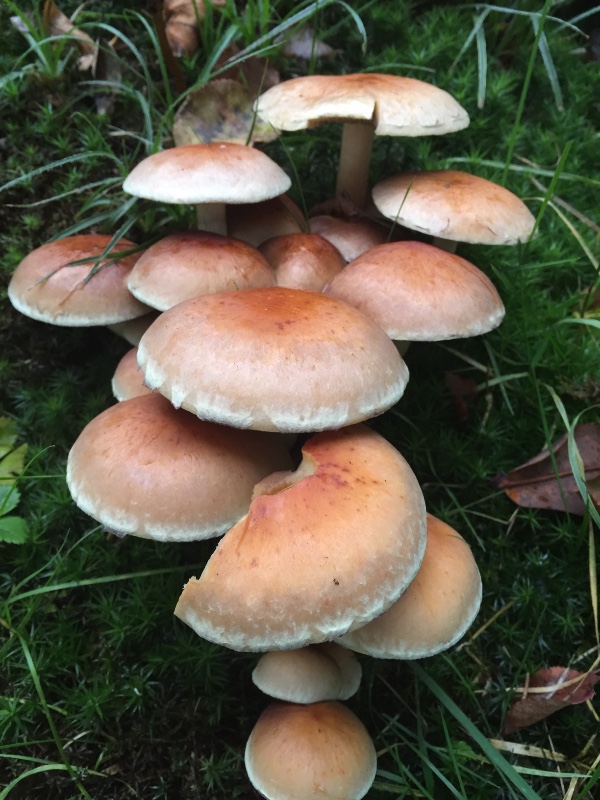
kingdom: Fungi
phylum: Basidiomycota
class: Agaricomycetes
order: Agaricales
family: Strophariaceae
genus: Hypholoma
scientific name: Hypholoma lateritium
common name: teglrød svovlhat
